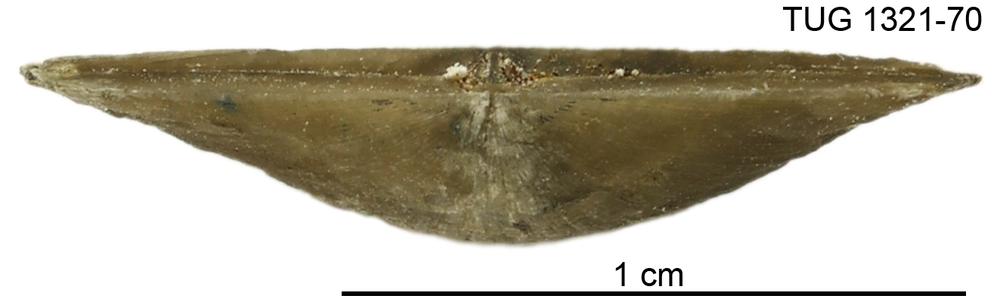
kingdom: Animalia
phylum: Brachiopoda
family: Sowerbyellidae
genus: Sowerbyella
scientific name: Sowerbyella tenera
